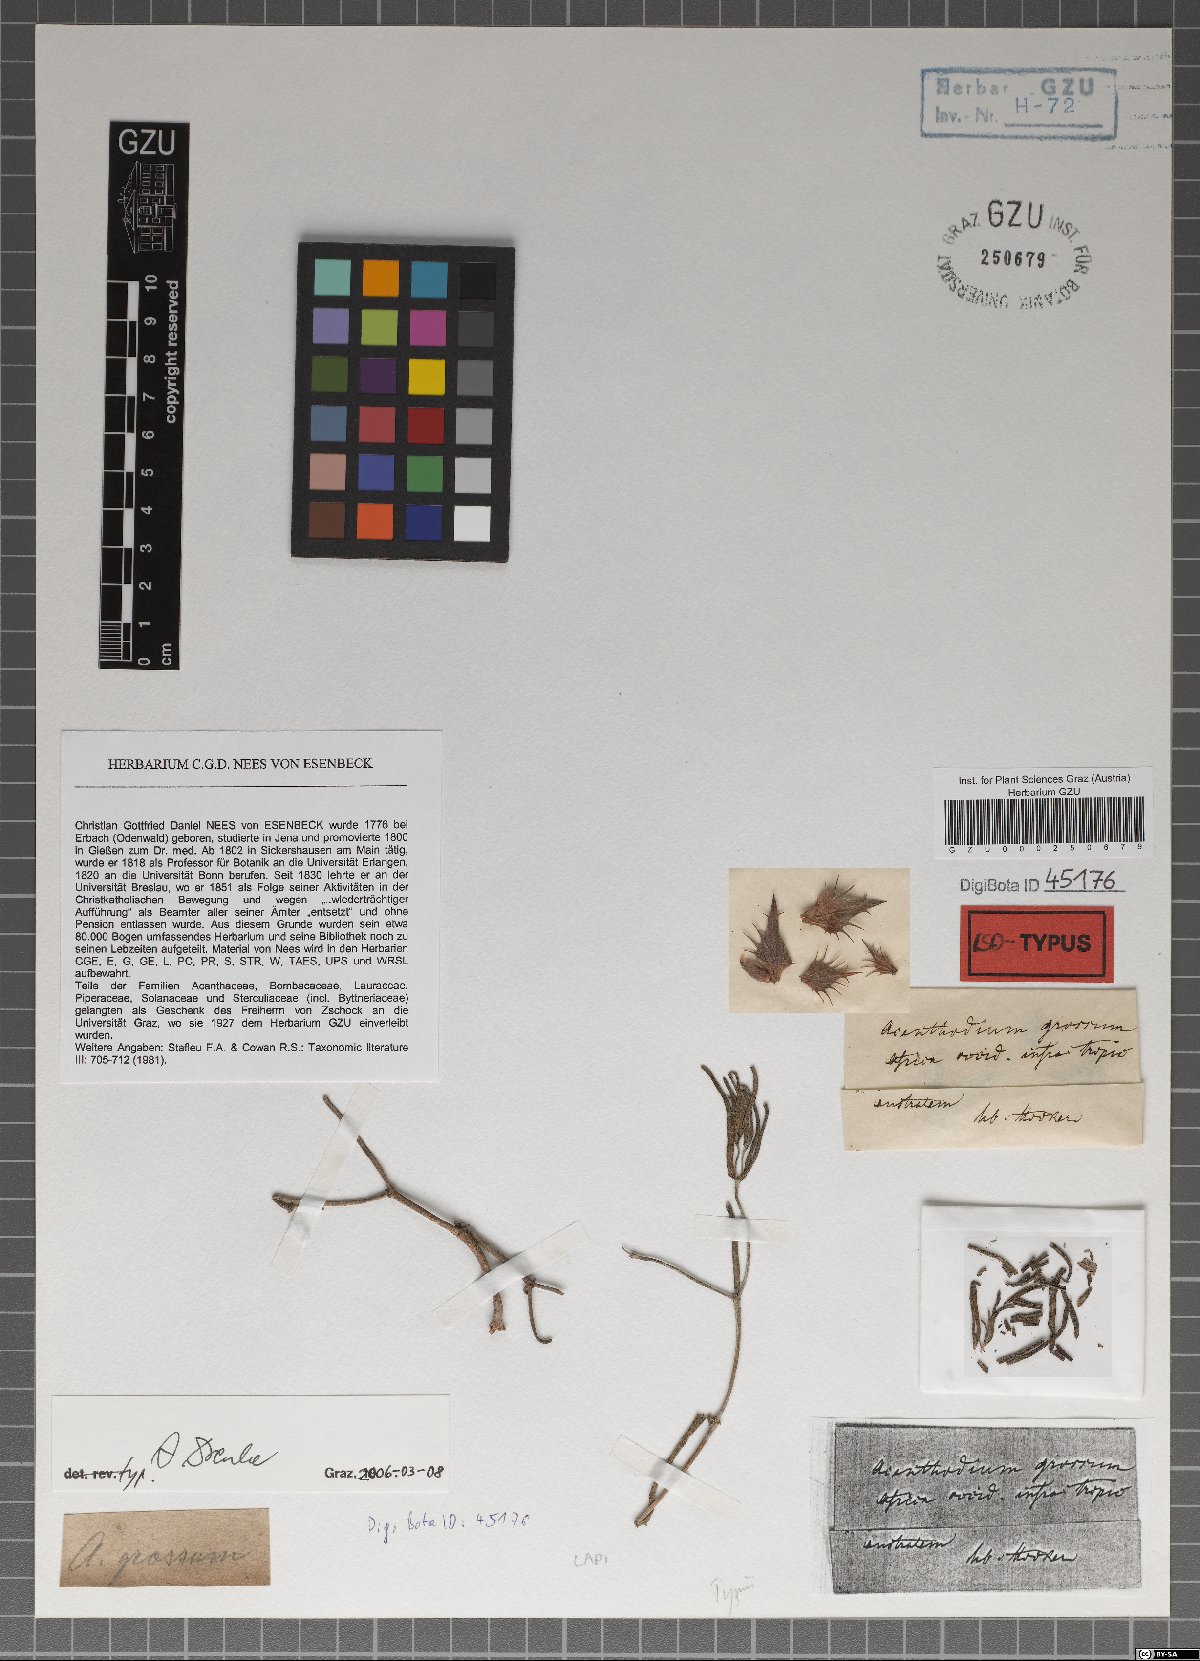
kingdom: Plantae
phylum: Tracheophyta
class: Magnoliopsida
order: Lamiales
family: Acanthaceae
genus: Blepharis
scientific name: Blepharis grossa
